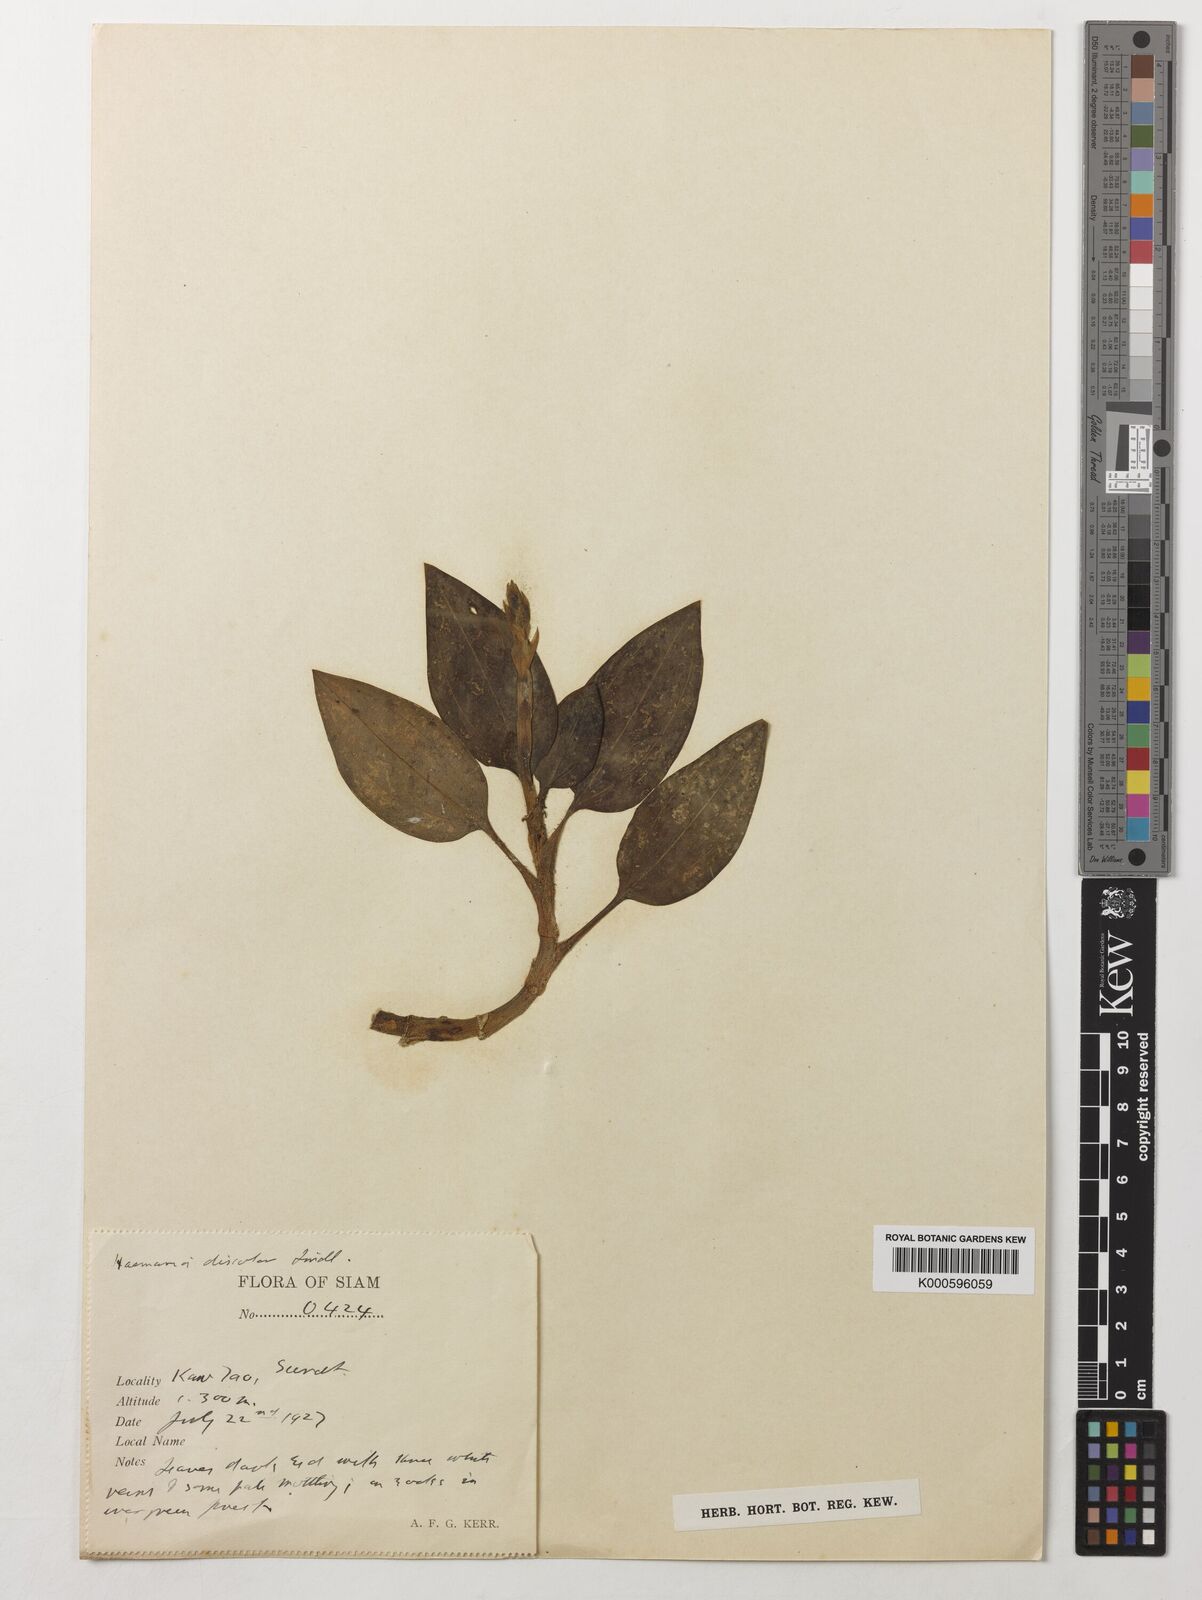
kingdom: Plantae
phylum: Tracheophyta
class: Liliopsida
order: Asparagales
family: Orchidaceae
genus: Ludisia
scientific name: Ludisia
